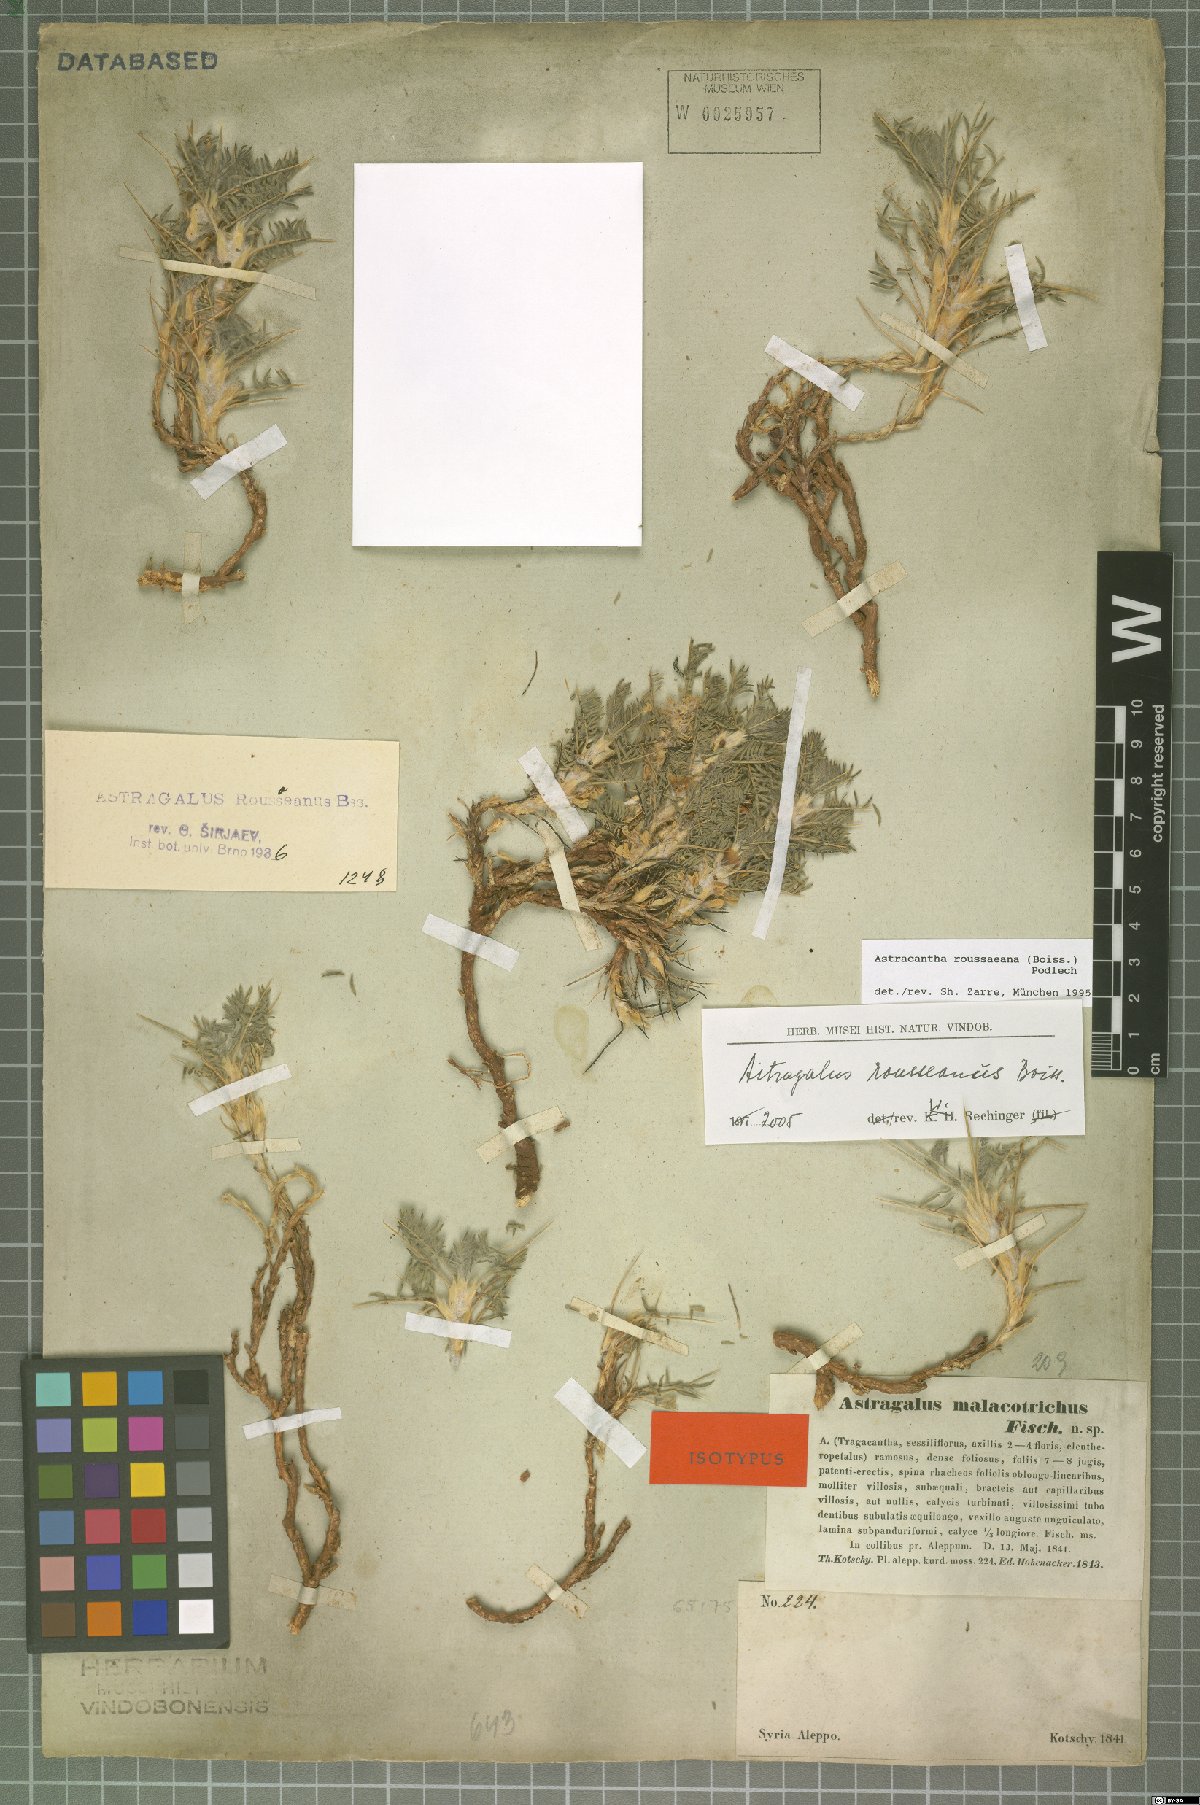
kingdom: Plantae
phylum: Tracheophyta
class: Magnoliopsida
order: Fabales
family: Fabaceae
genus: Astragalus
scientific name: Astragalus rousseanus
